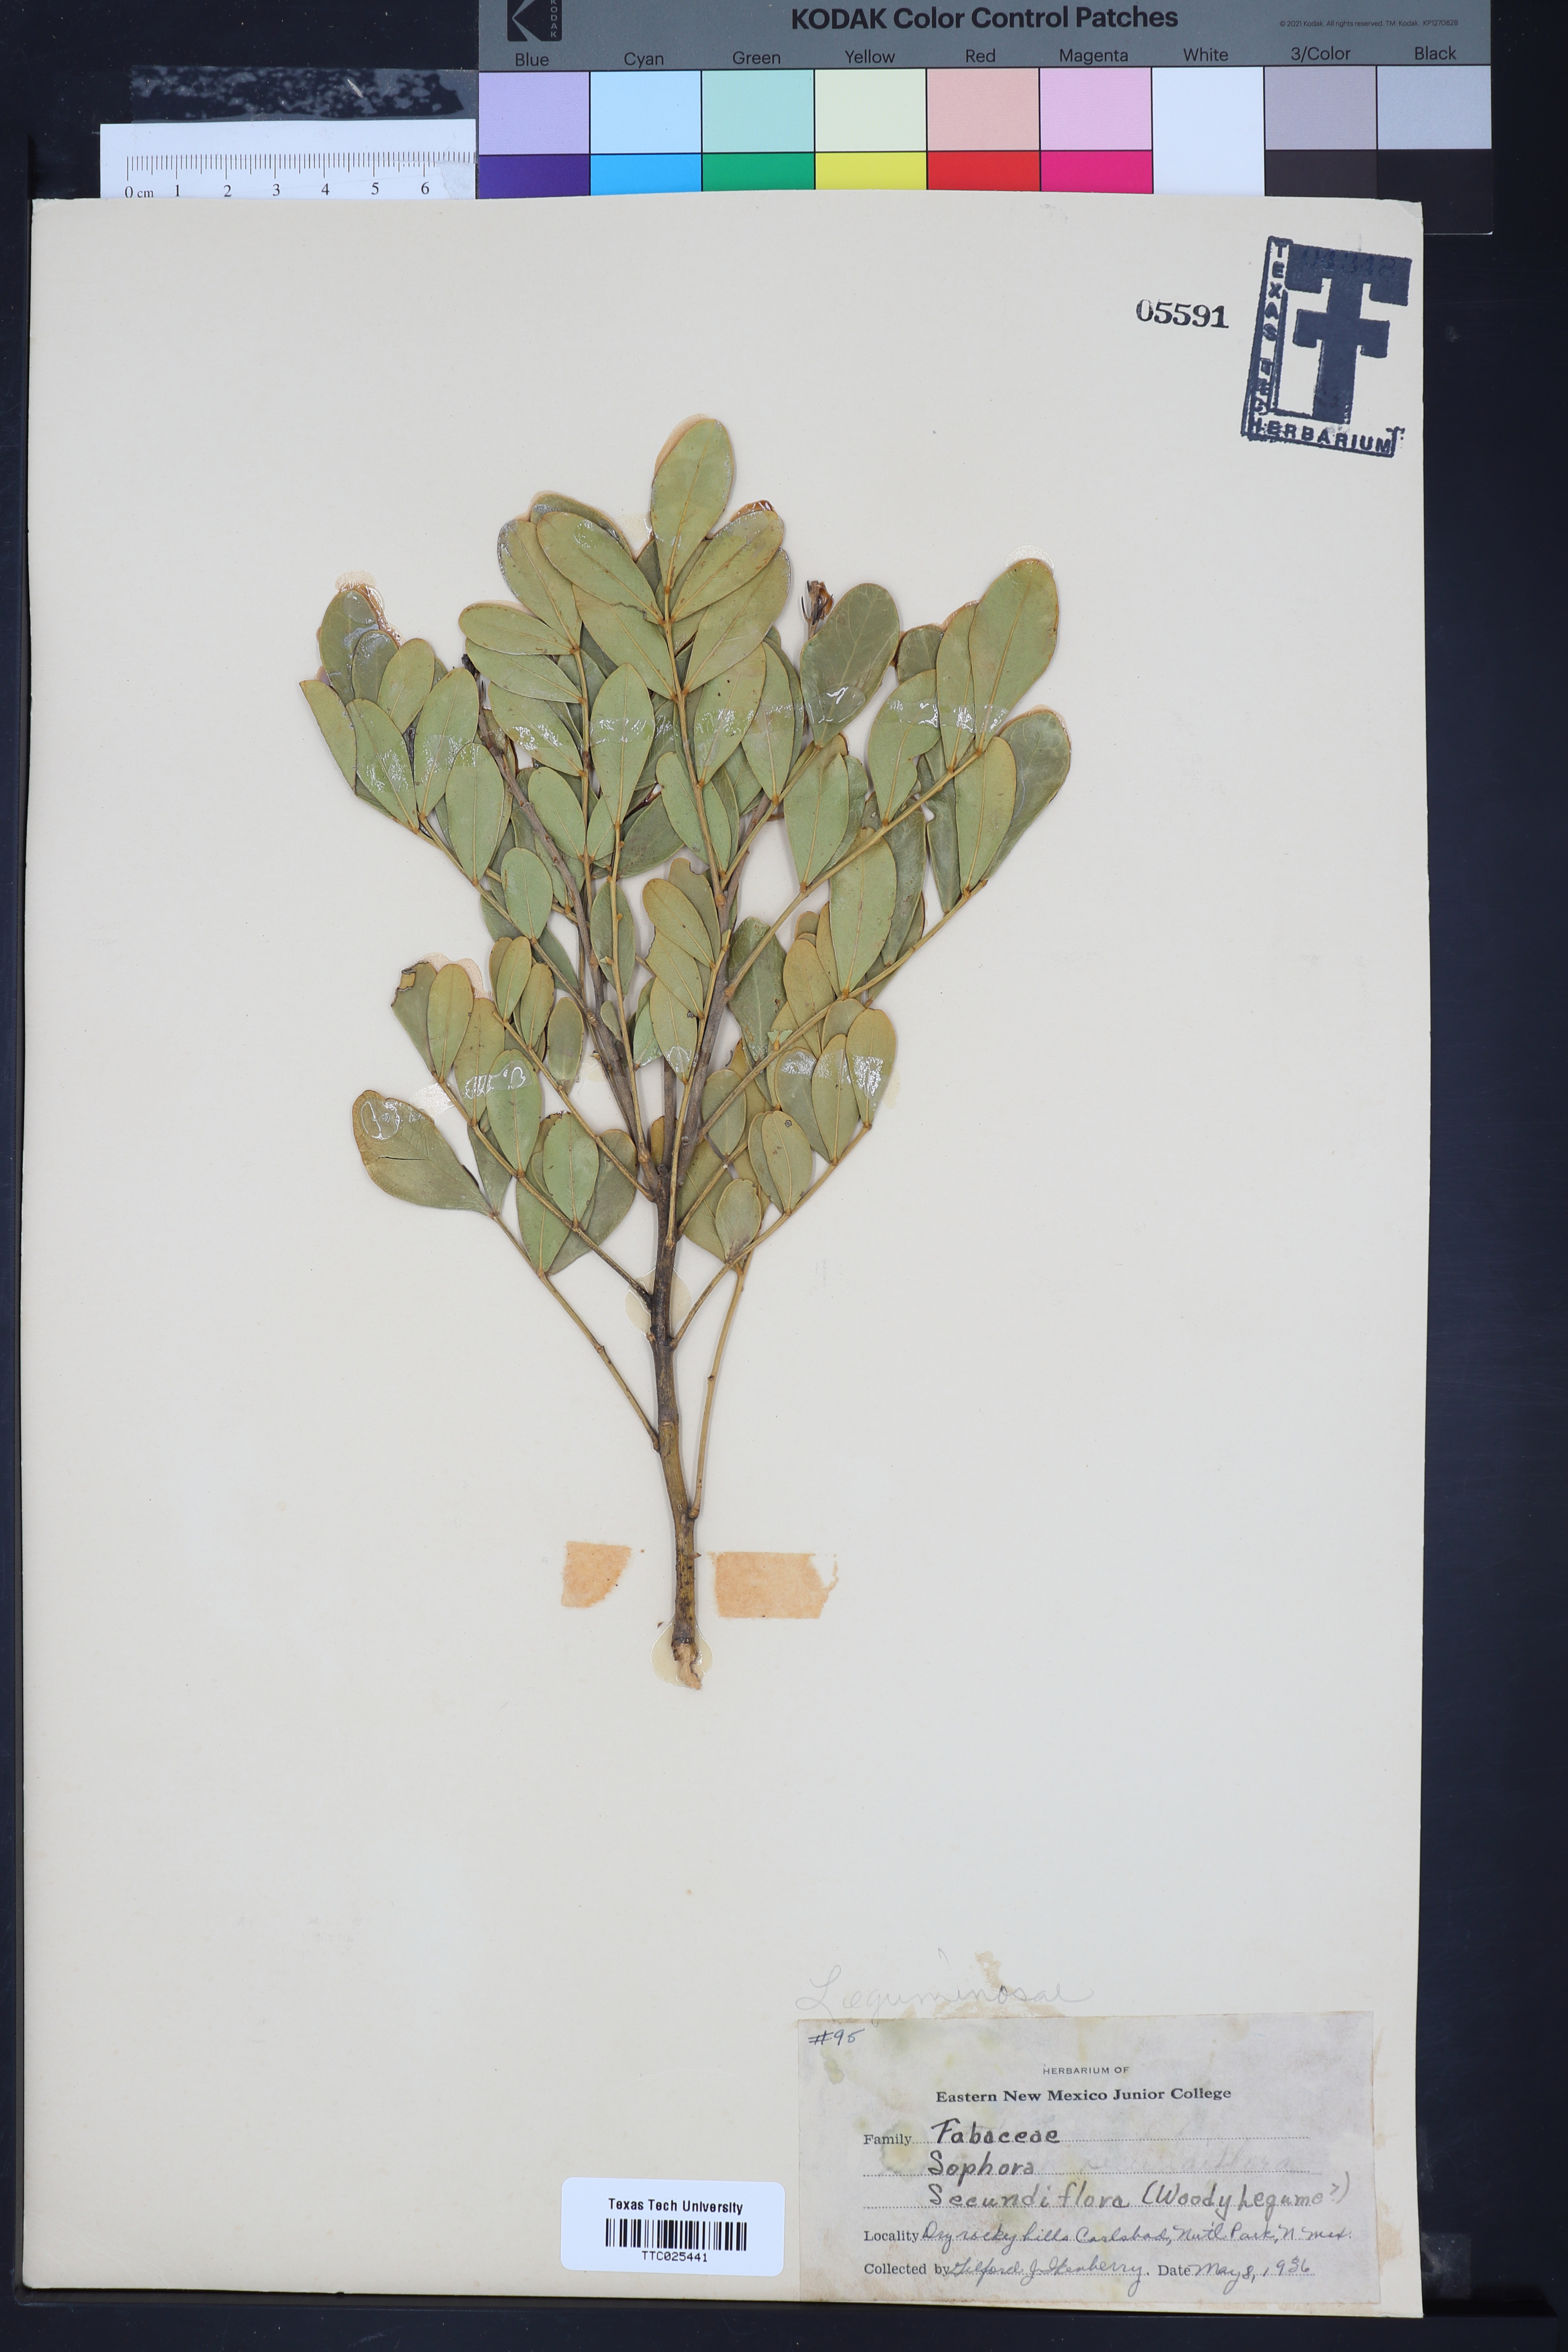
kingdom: Plantae
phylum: Tracheophyta
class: Magnoliopsida
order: Fabales
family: Fabaceae
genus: Dermatophyllum
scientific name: Dermatophyllum secundiflorum
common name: Texas-mountain-laurel
